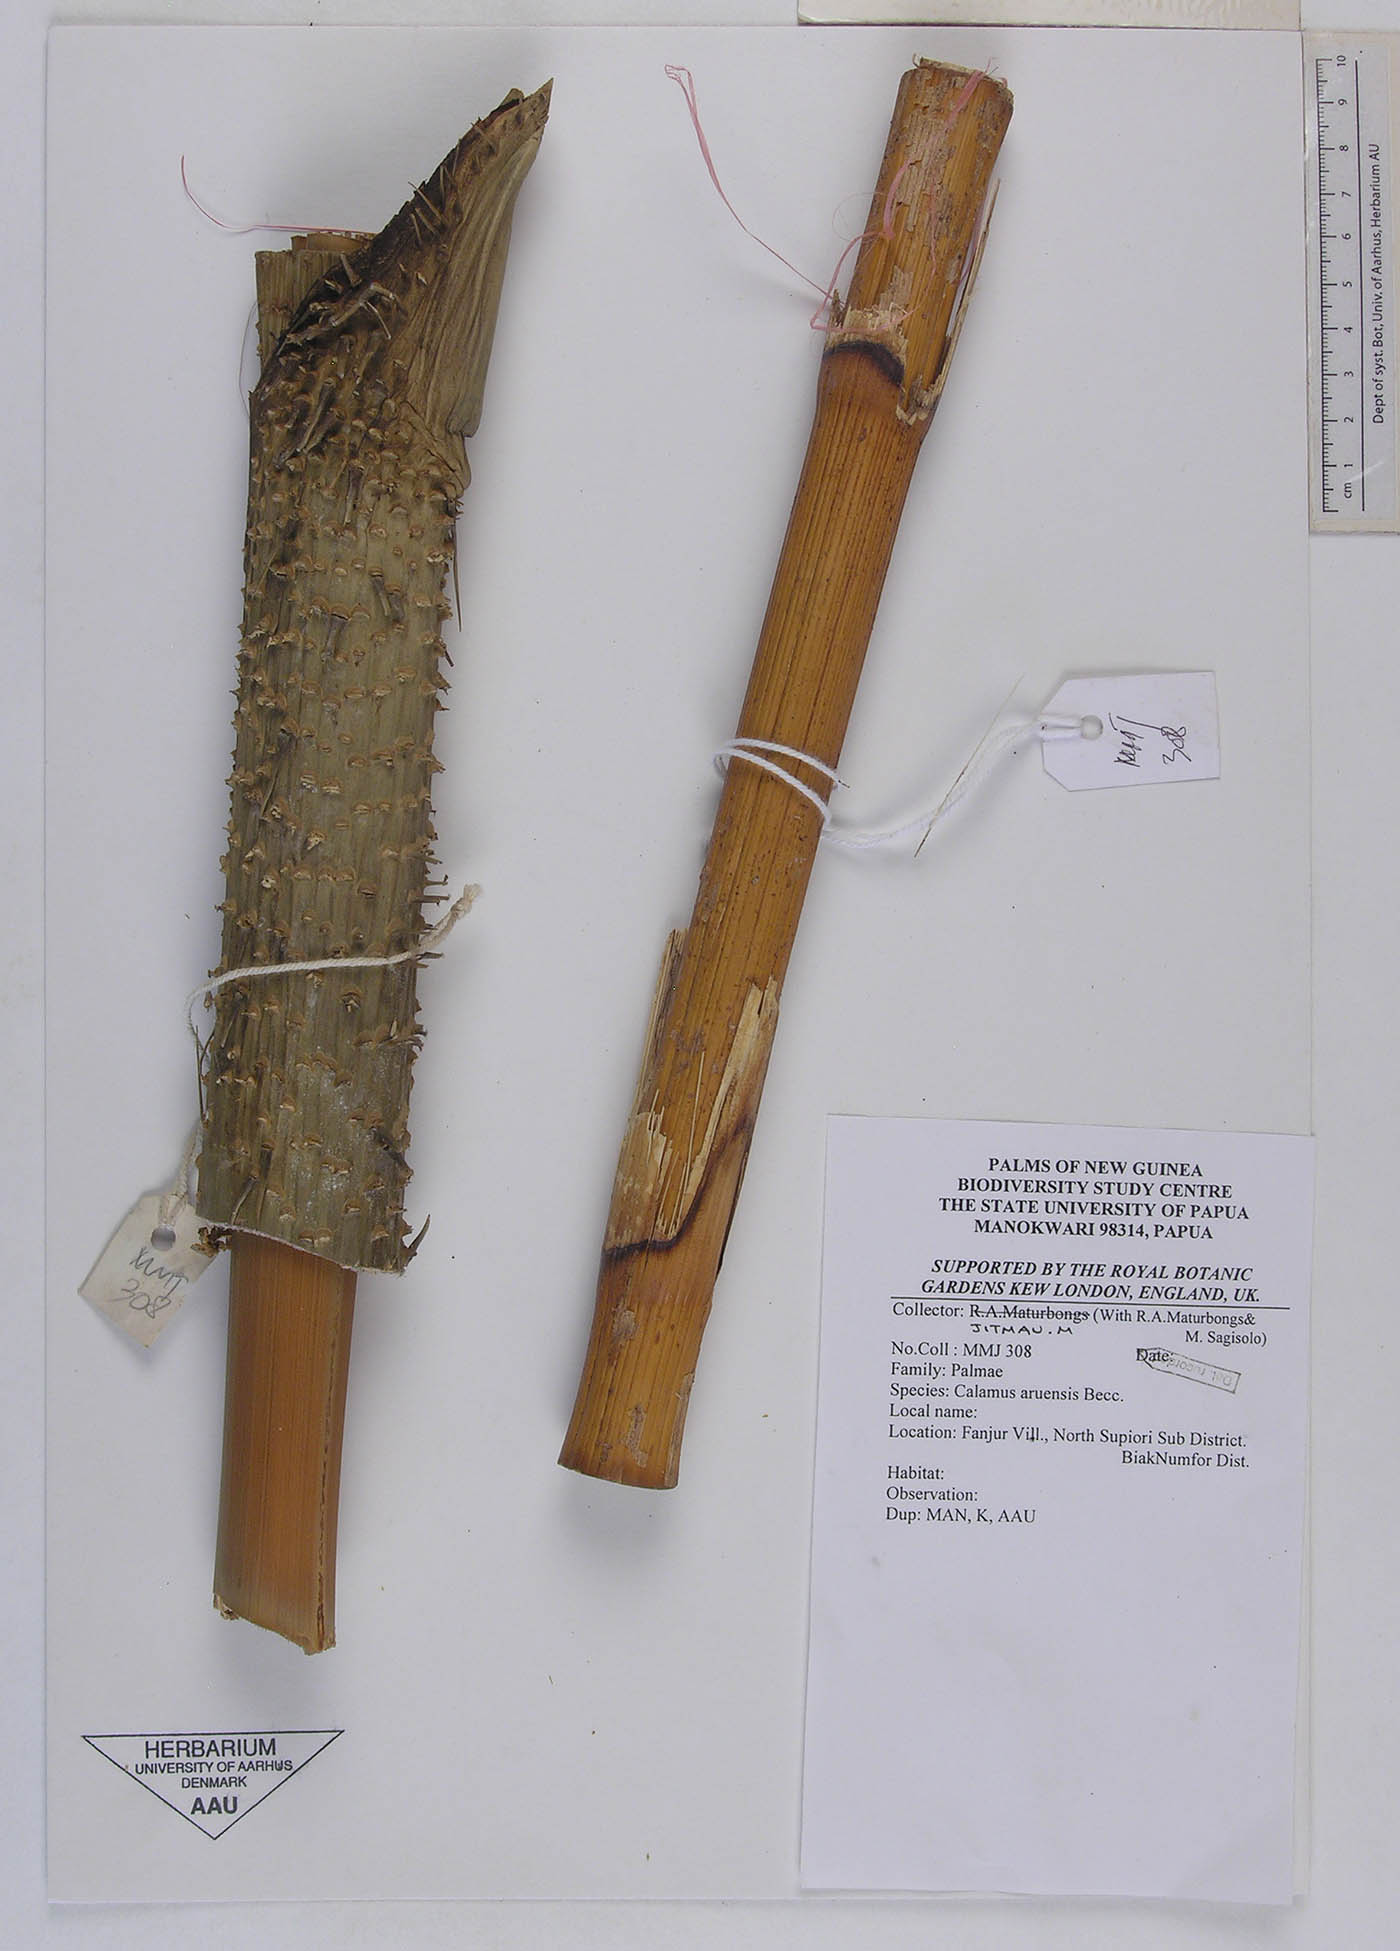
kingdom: Plantae
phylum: Tracheophyta
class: Liliopsida
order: Arecales
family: Arecaceae
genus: Calamus
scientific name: Calamus aruensis
